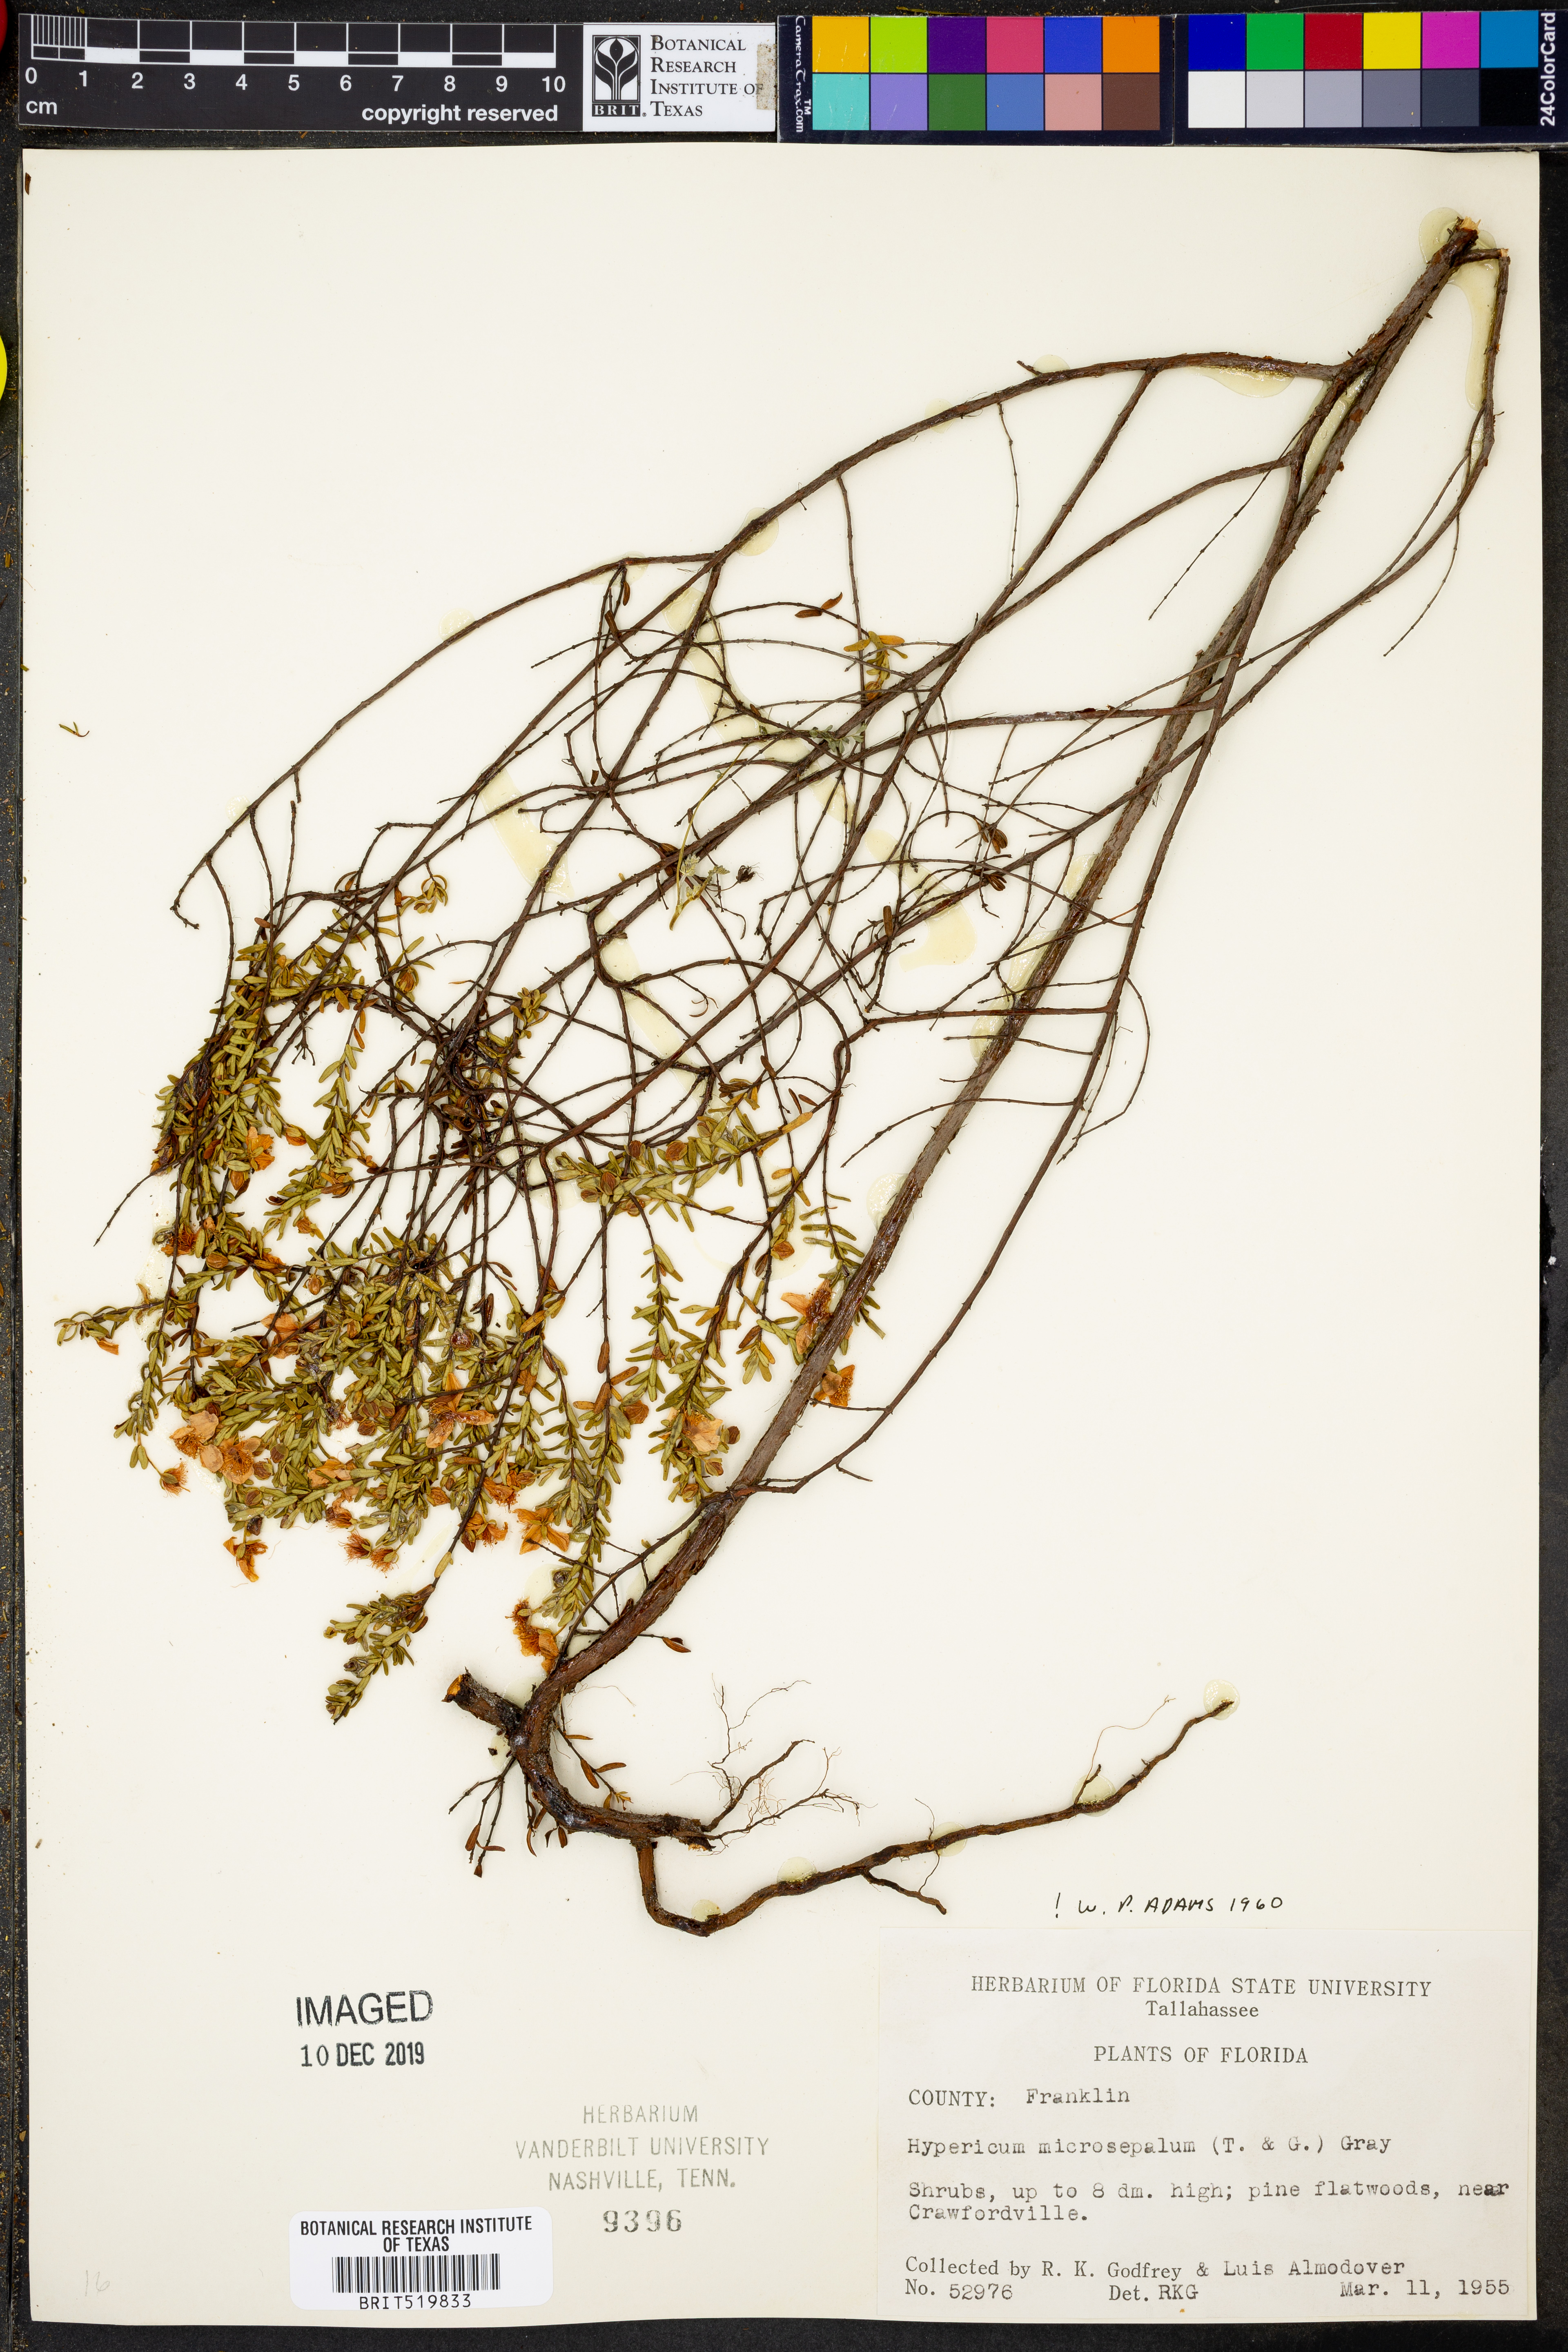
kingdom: Plantae
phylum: Tracheophyta
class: Magnoliopsida
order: Malpighiales
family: Hypericaceae
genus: Hypericum
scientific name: Hypericum microsepalum
